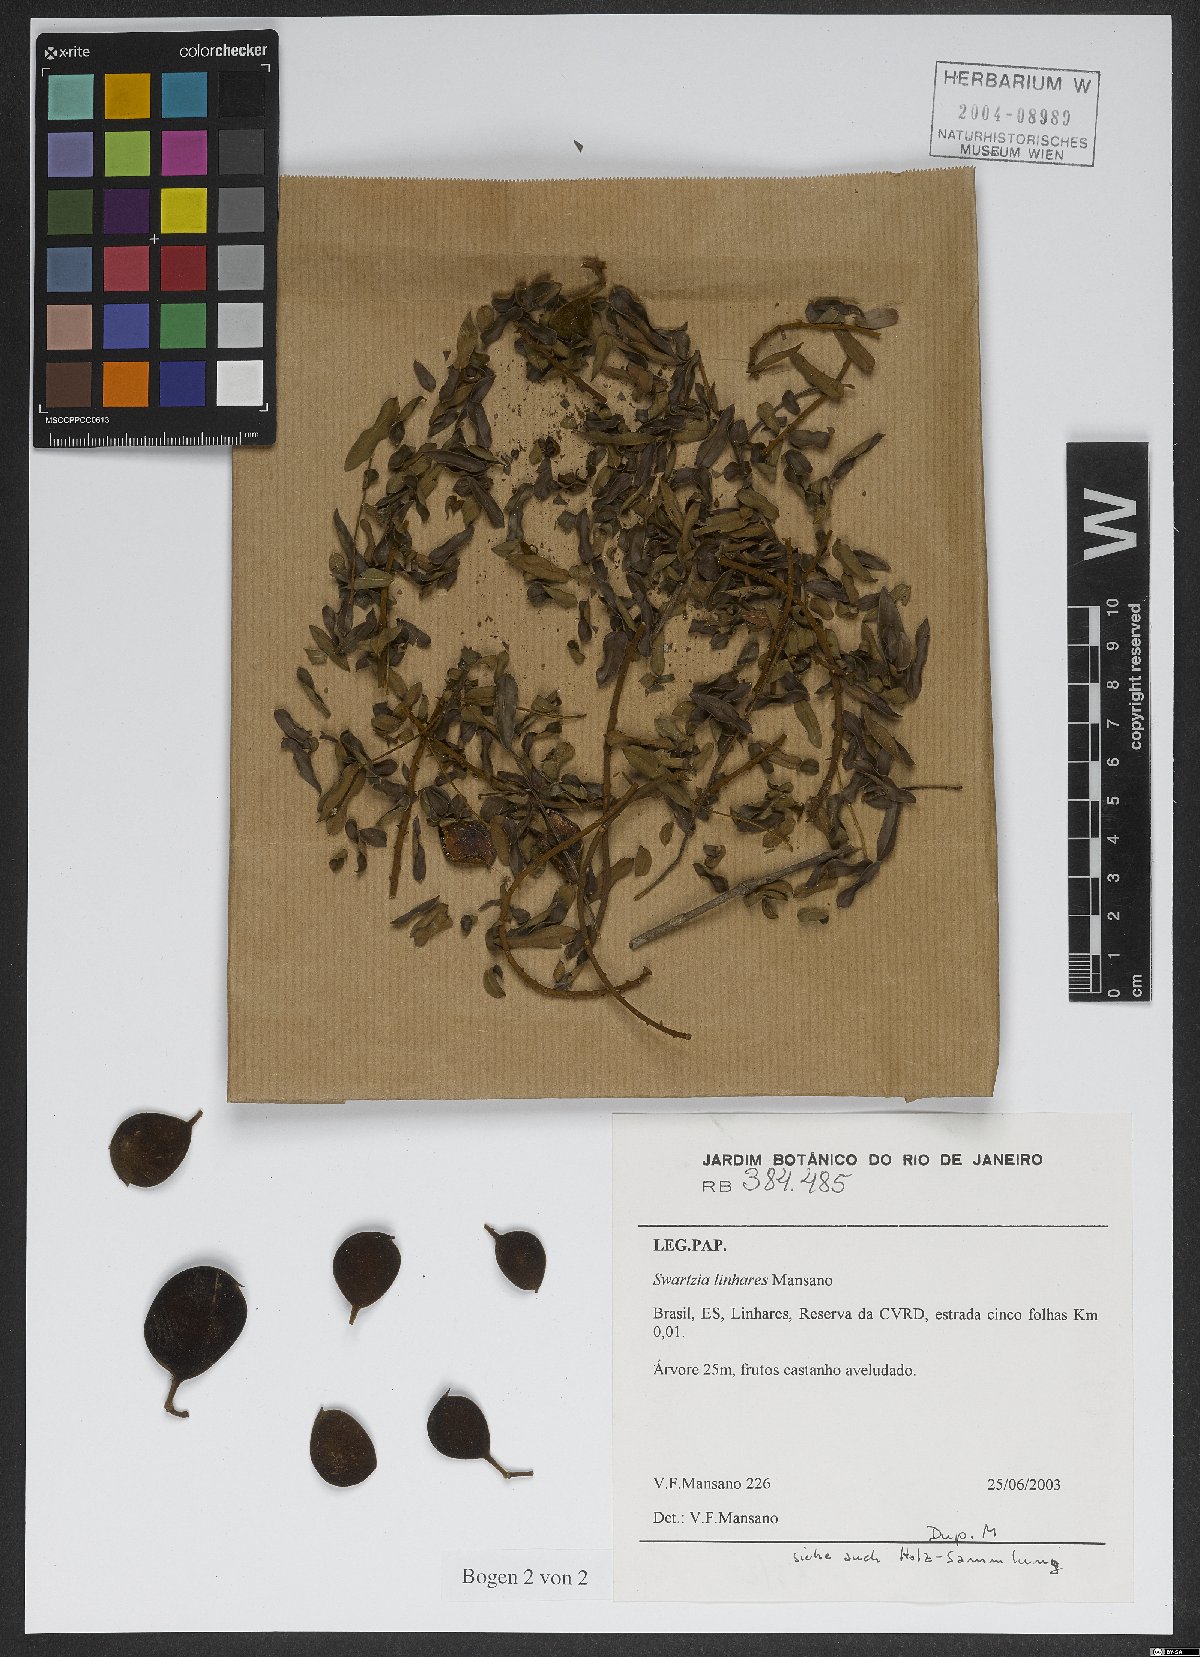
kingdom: Plantae
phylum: Tracheophyta
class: Magnoliopsida
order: Fabales
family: Fabaceae
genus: Swartzia
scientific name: Swartzia linharensis
